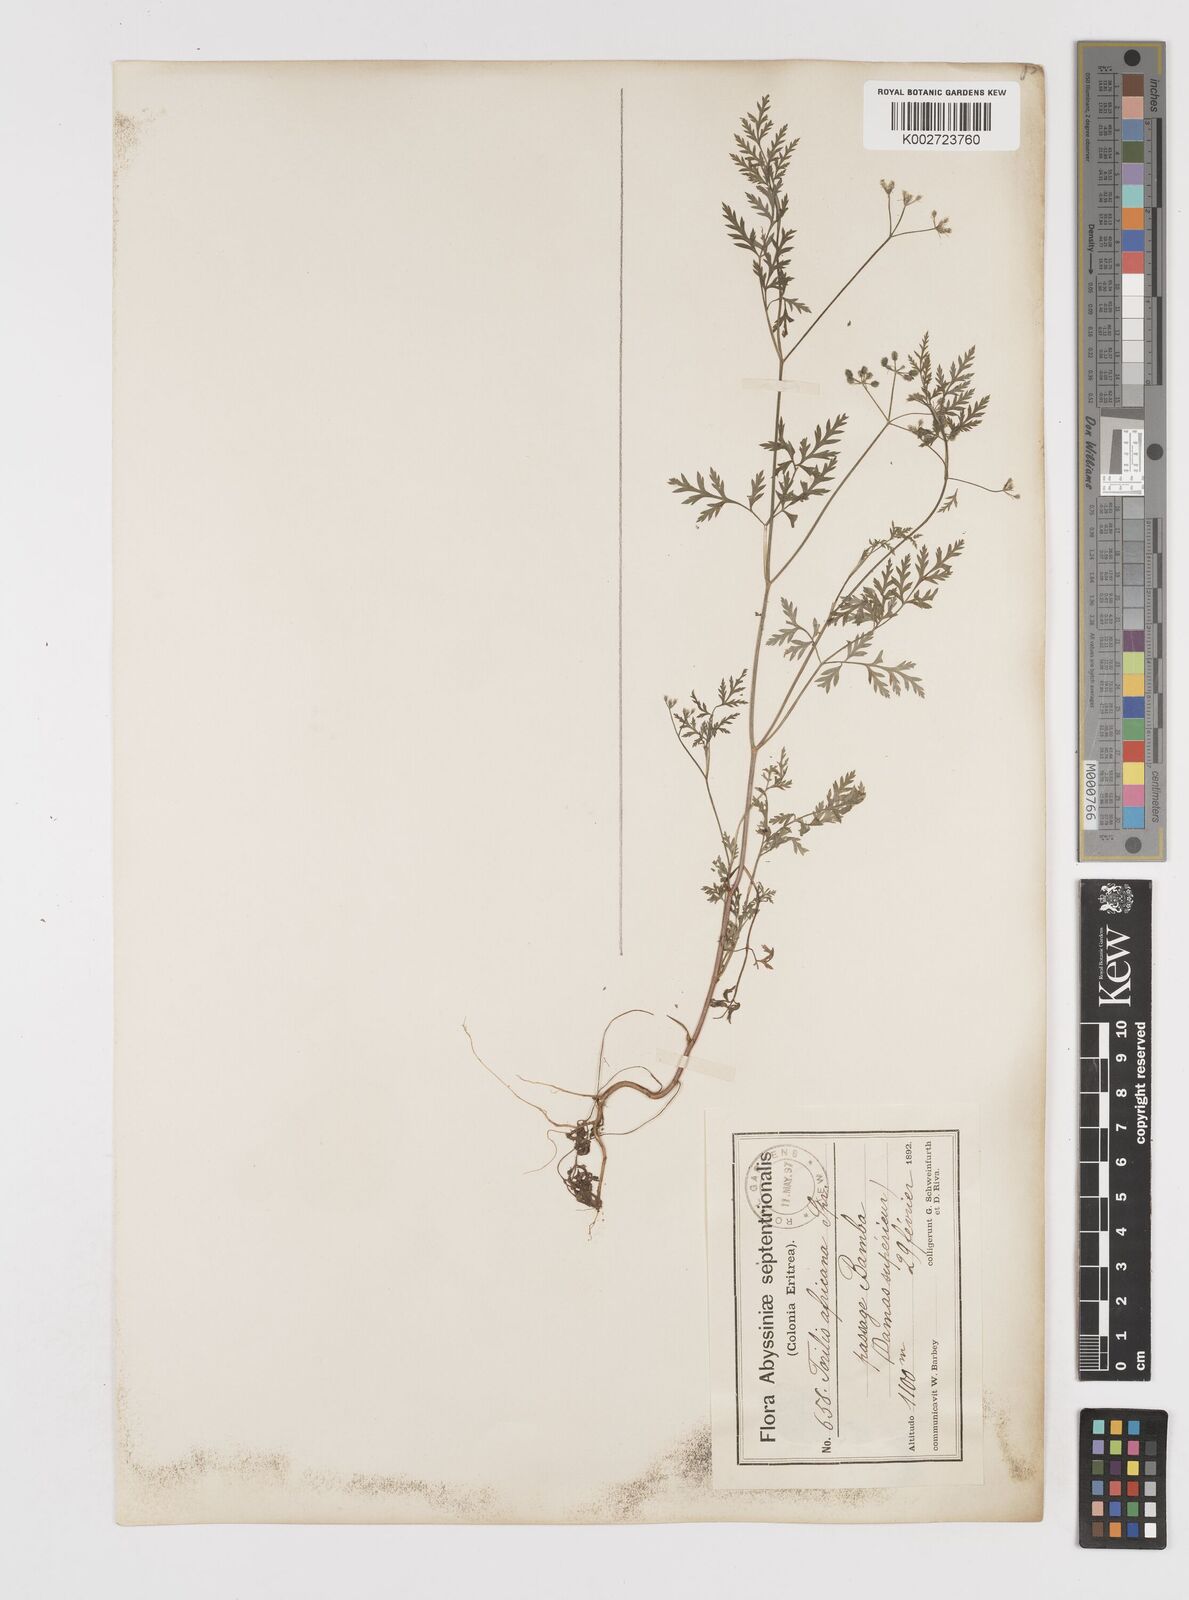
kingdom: Plantae
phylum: Tracheophyta
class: Magnoliopsida
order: Apiales
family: Apiaceae
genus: Torilis
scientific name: Torilis arvensis
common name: Spreading hedge-parsley
